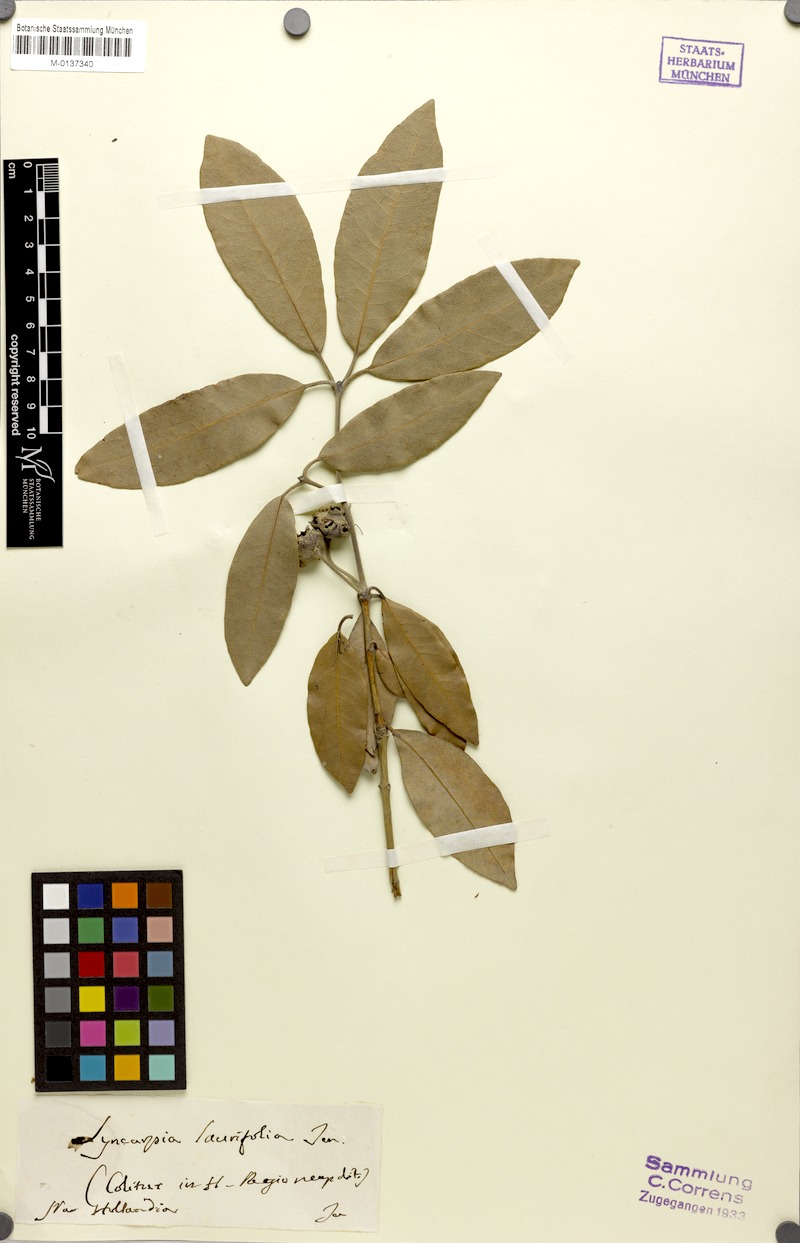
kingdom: Plantae
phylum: Tracheophyta
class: Magnoliopsida
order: Myrtales
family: Myrtaceae
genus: Syncarpia
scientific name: Syncarpia glomulifera
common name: Turpentine tree
